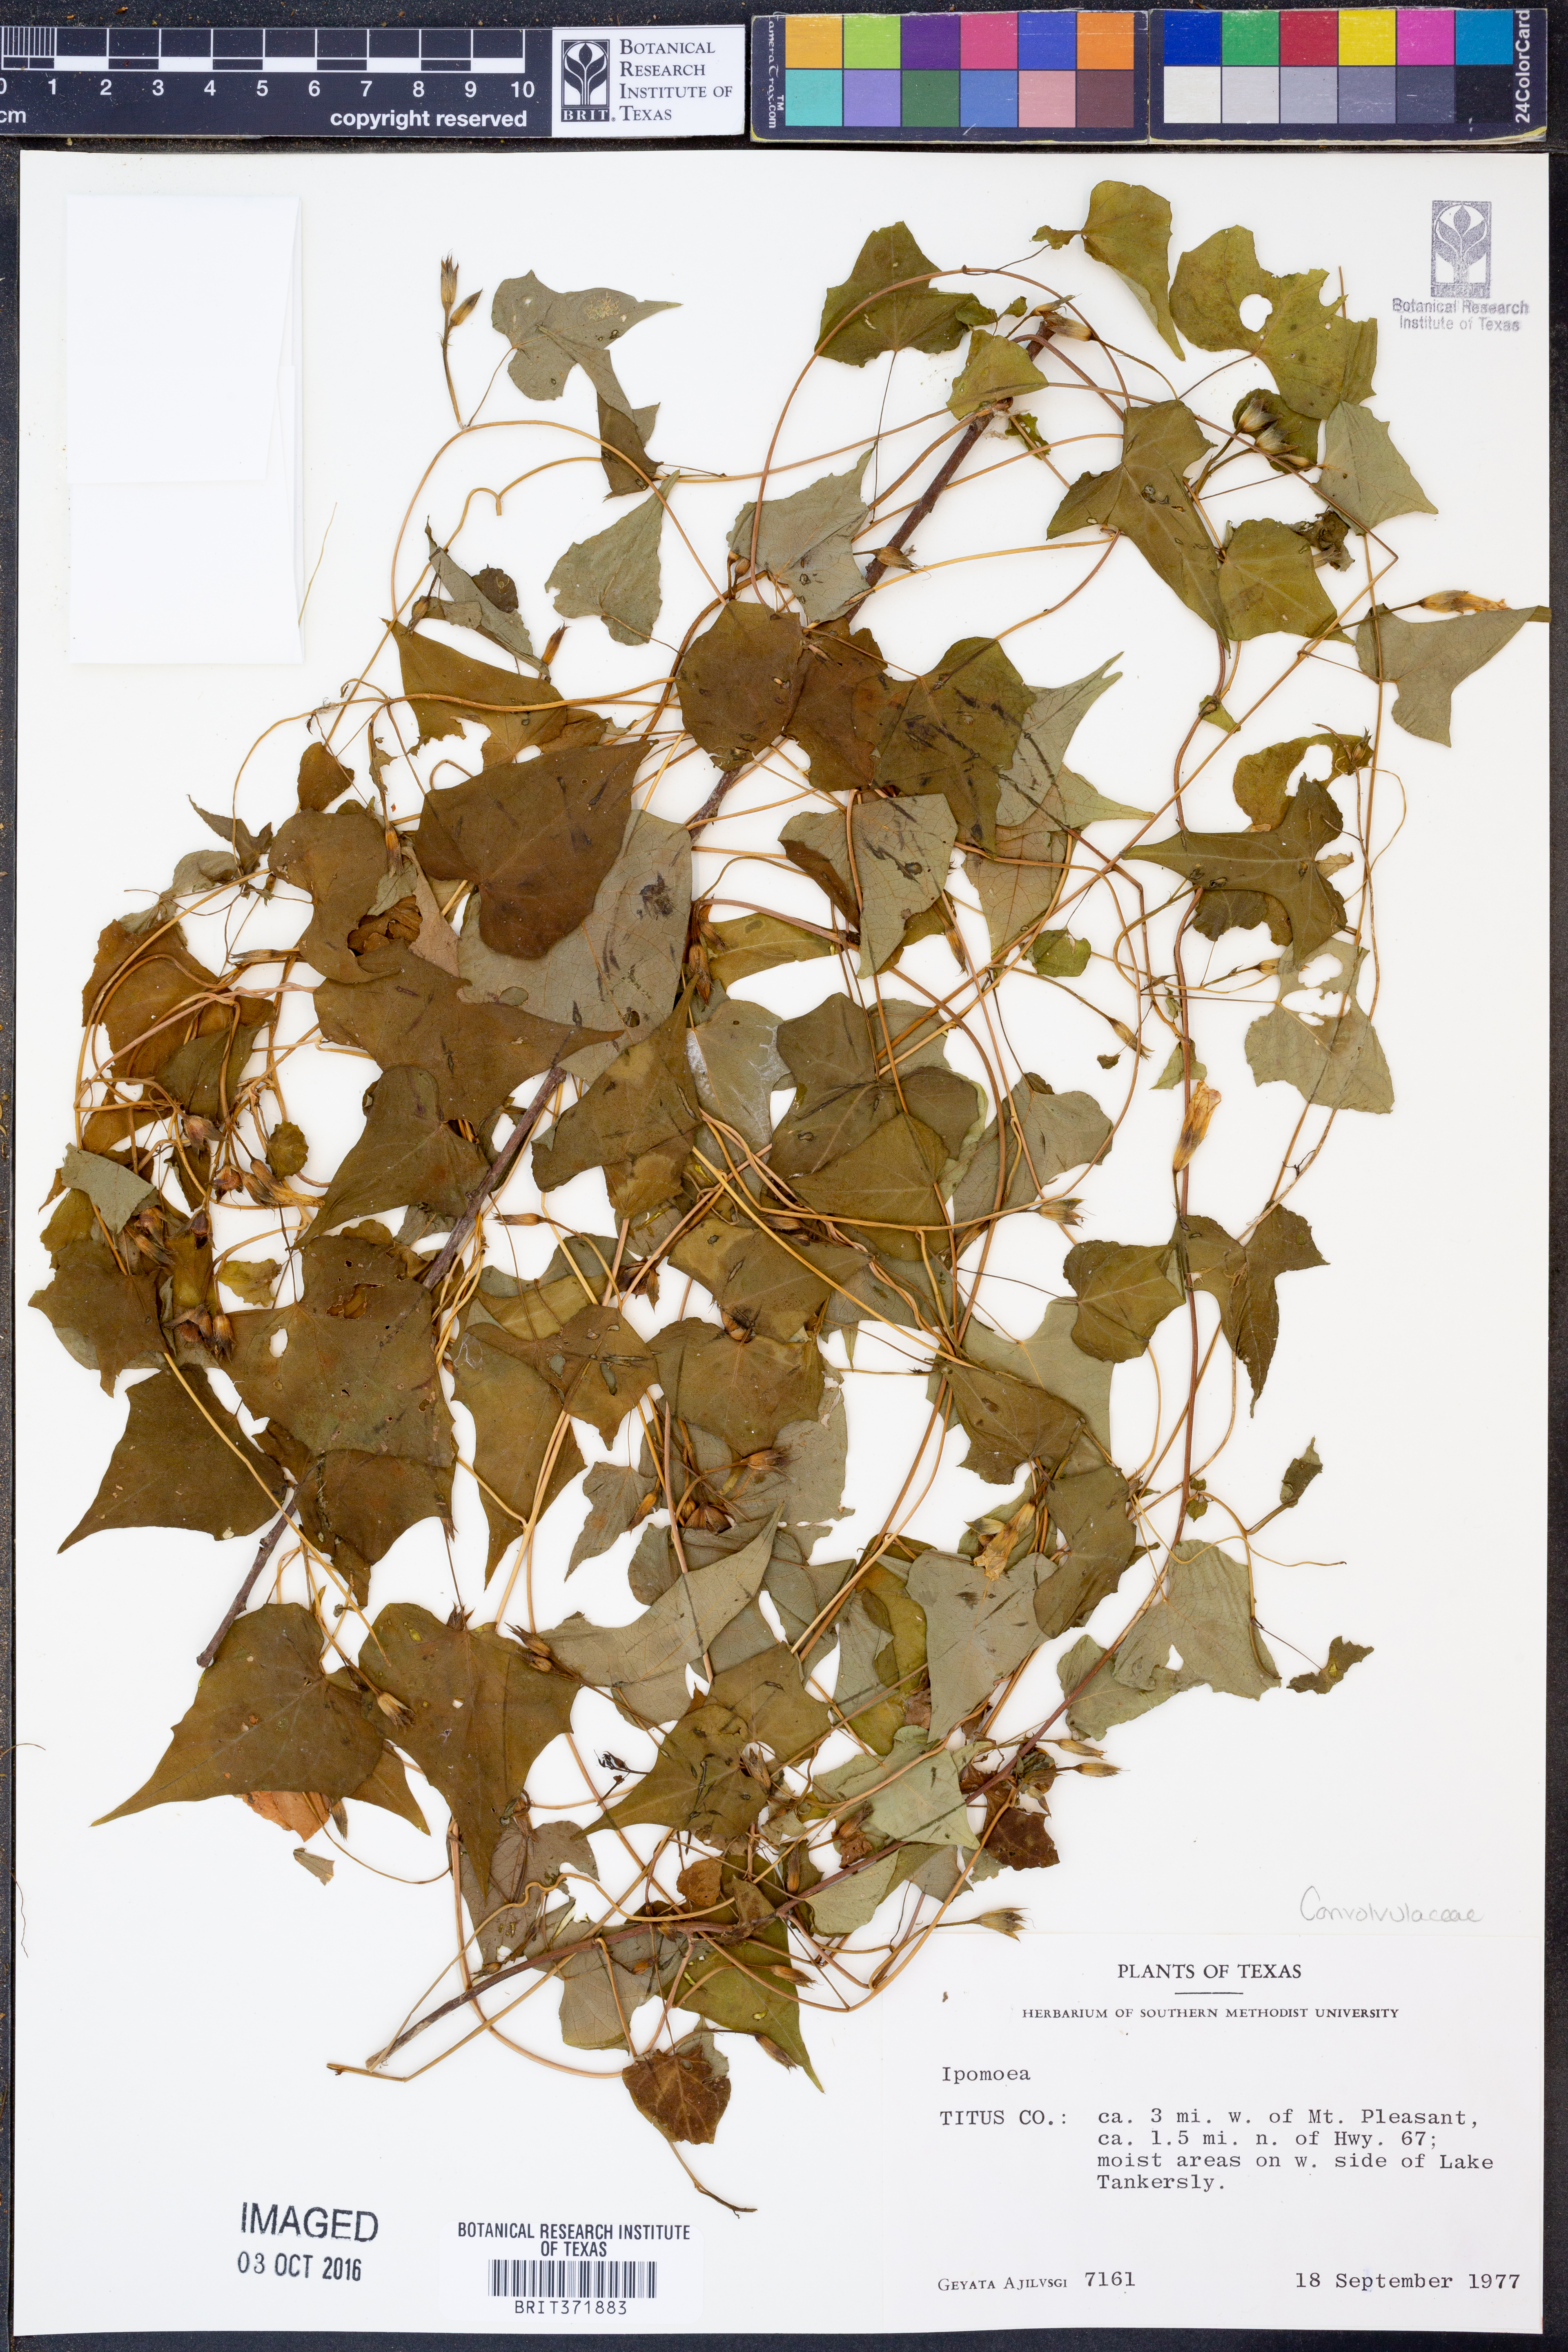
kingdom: Plantae
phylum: Tracheophyta
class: Magnoliopsida
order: Solanales
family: Convolvulaceae
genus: Ipomoea
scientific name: Ipomoea
